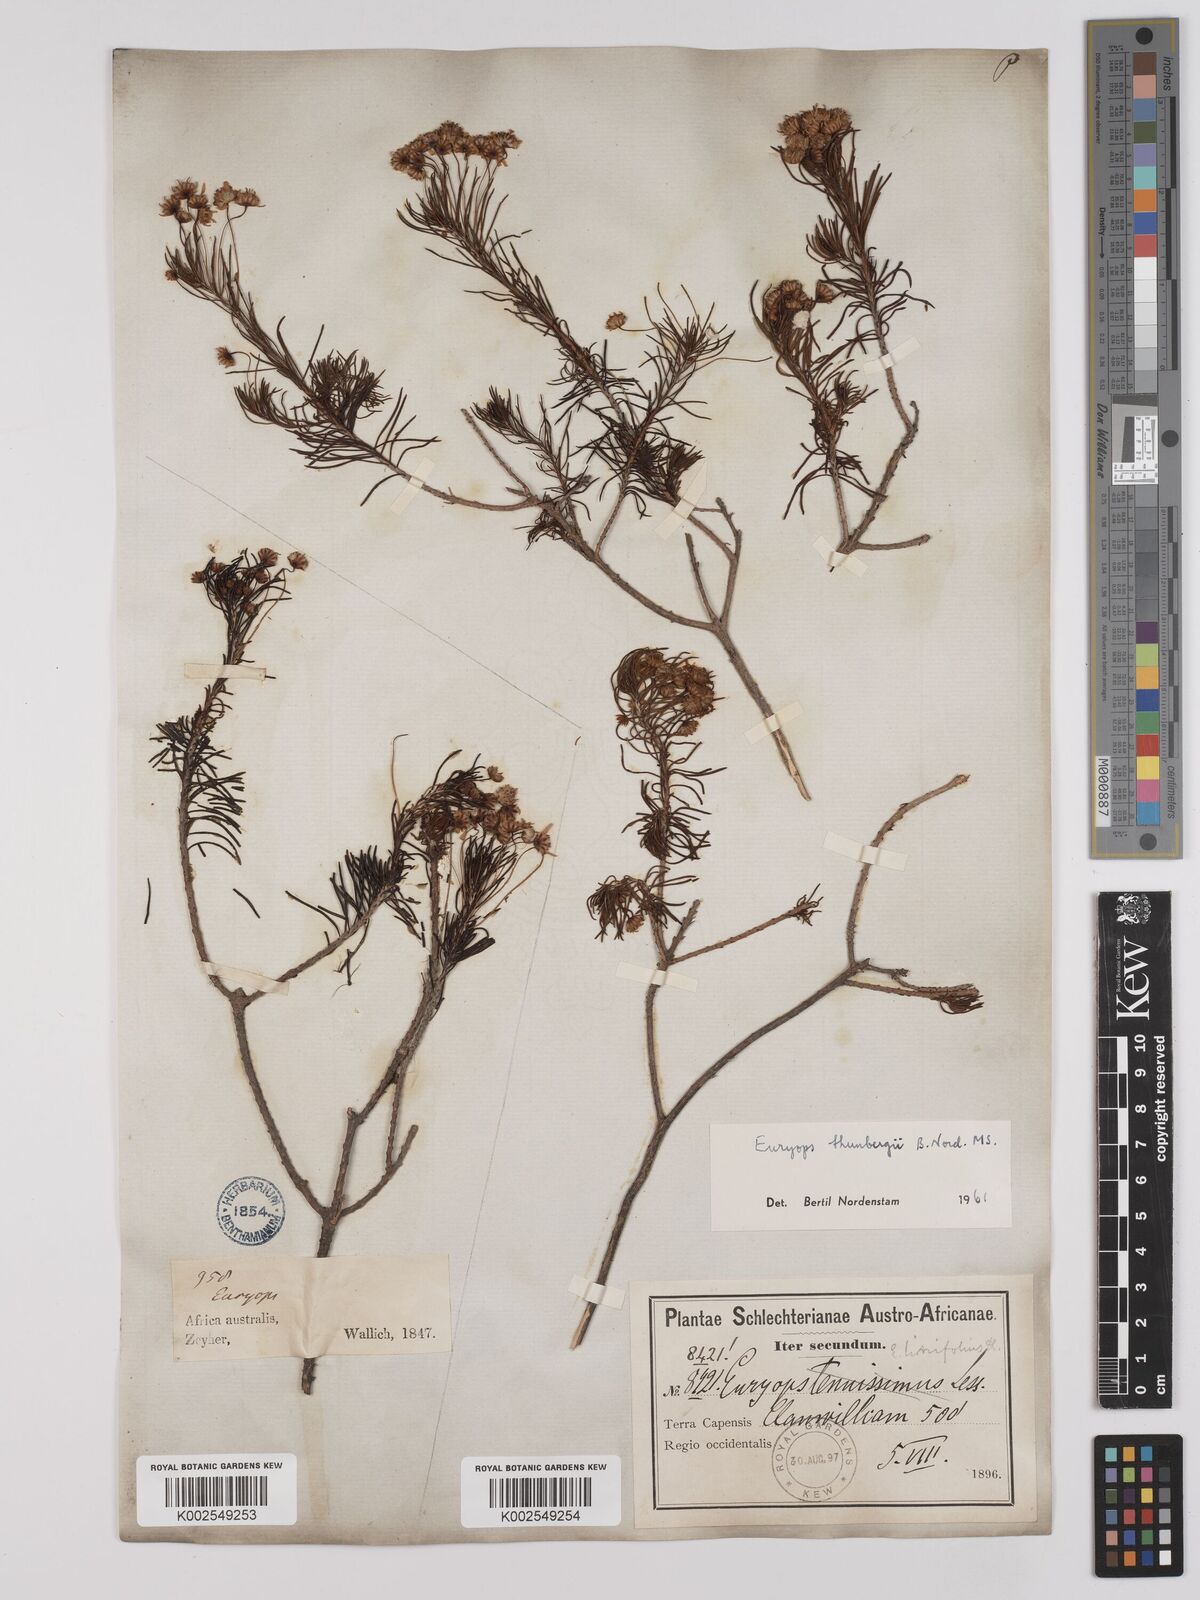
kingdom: Plantae
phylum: Tracheophyta
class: Magnoliopsida
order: Asterales
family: Asteraceae
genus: Euryops
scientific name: Euryops thunbergii
